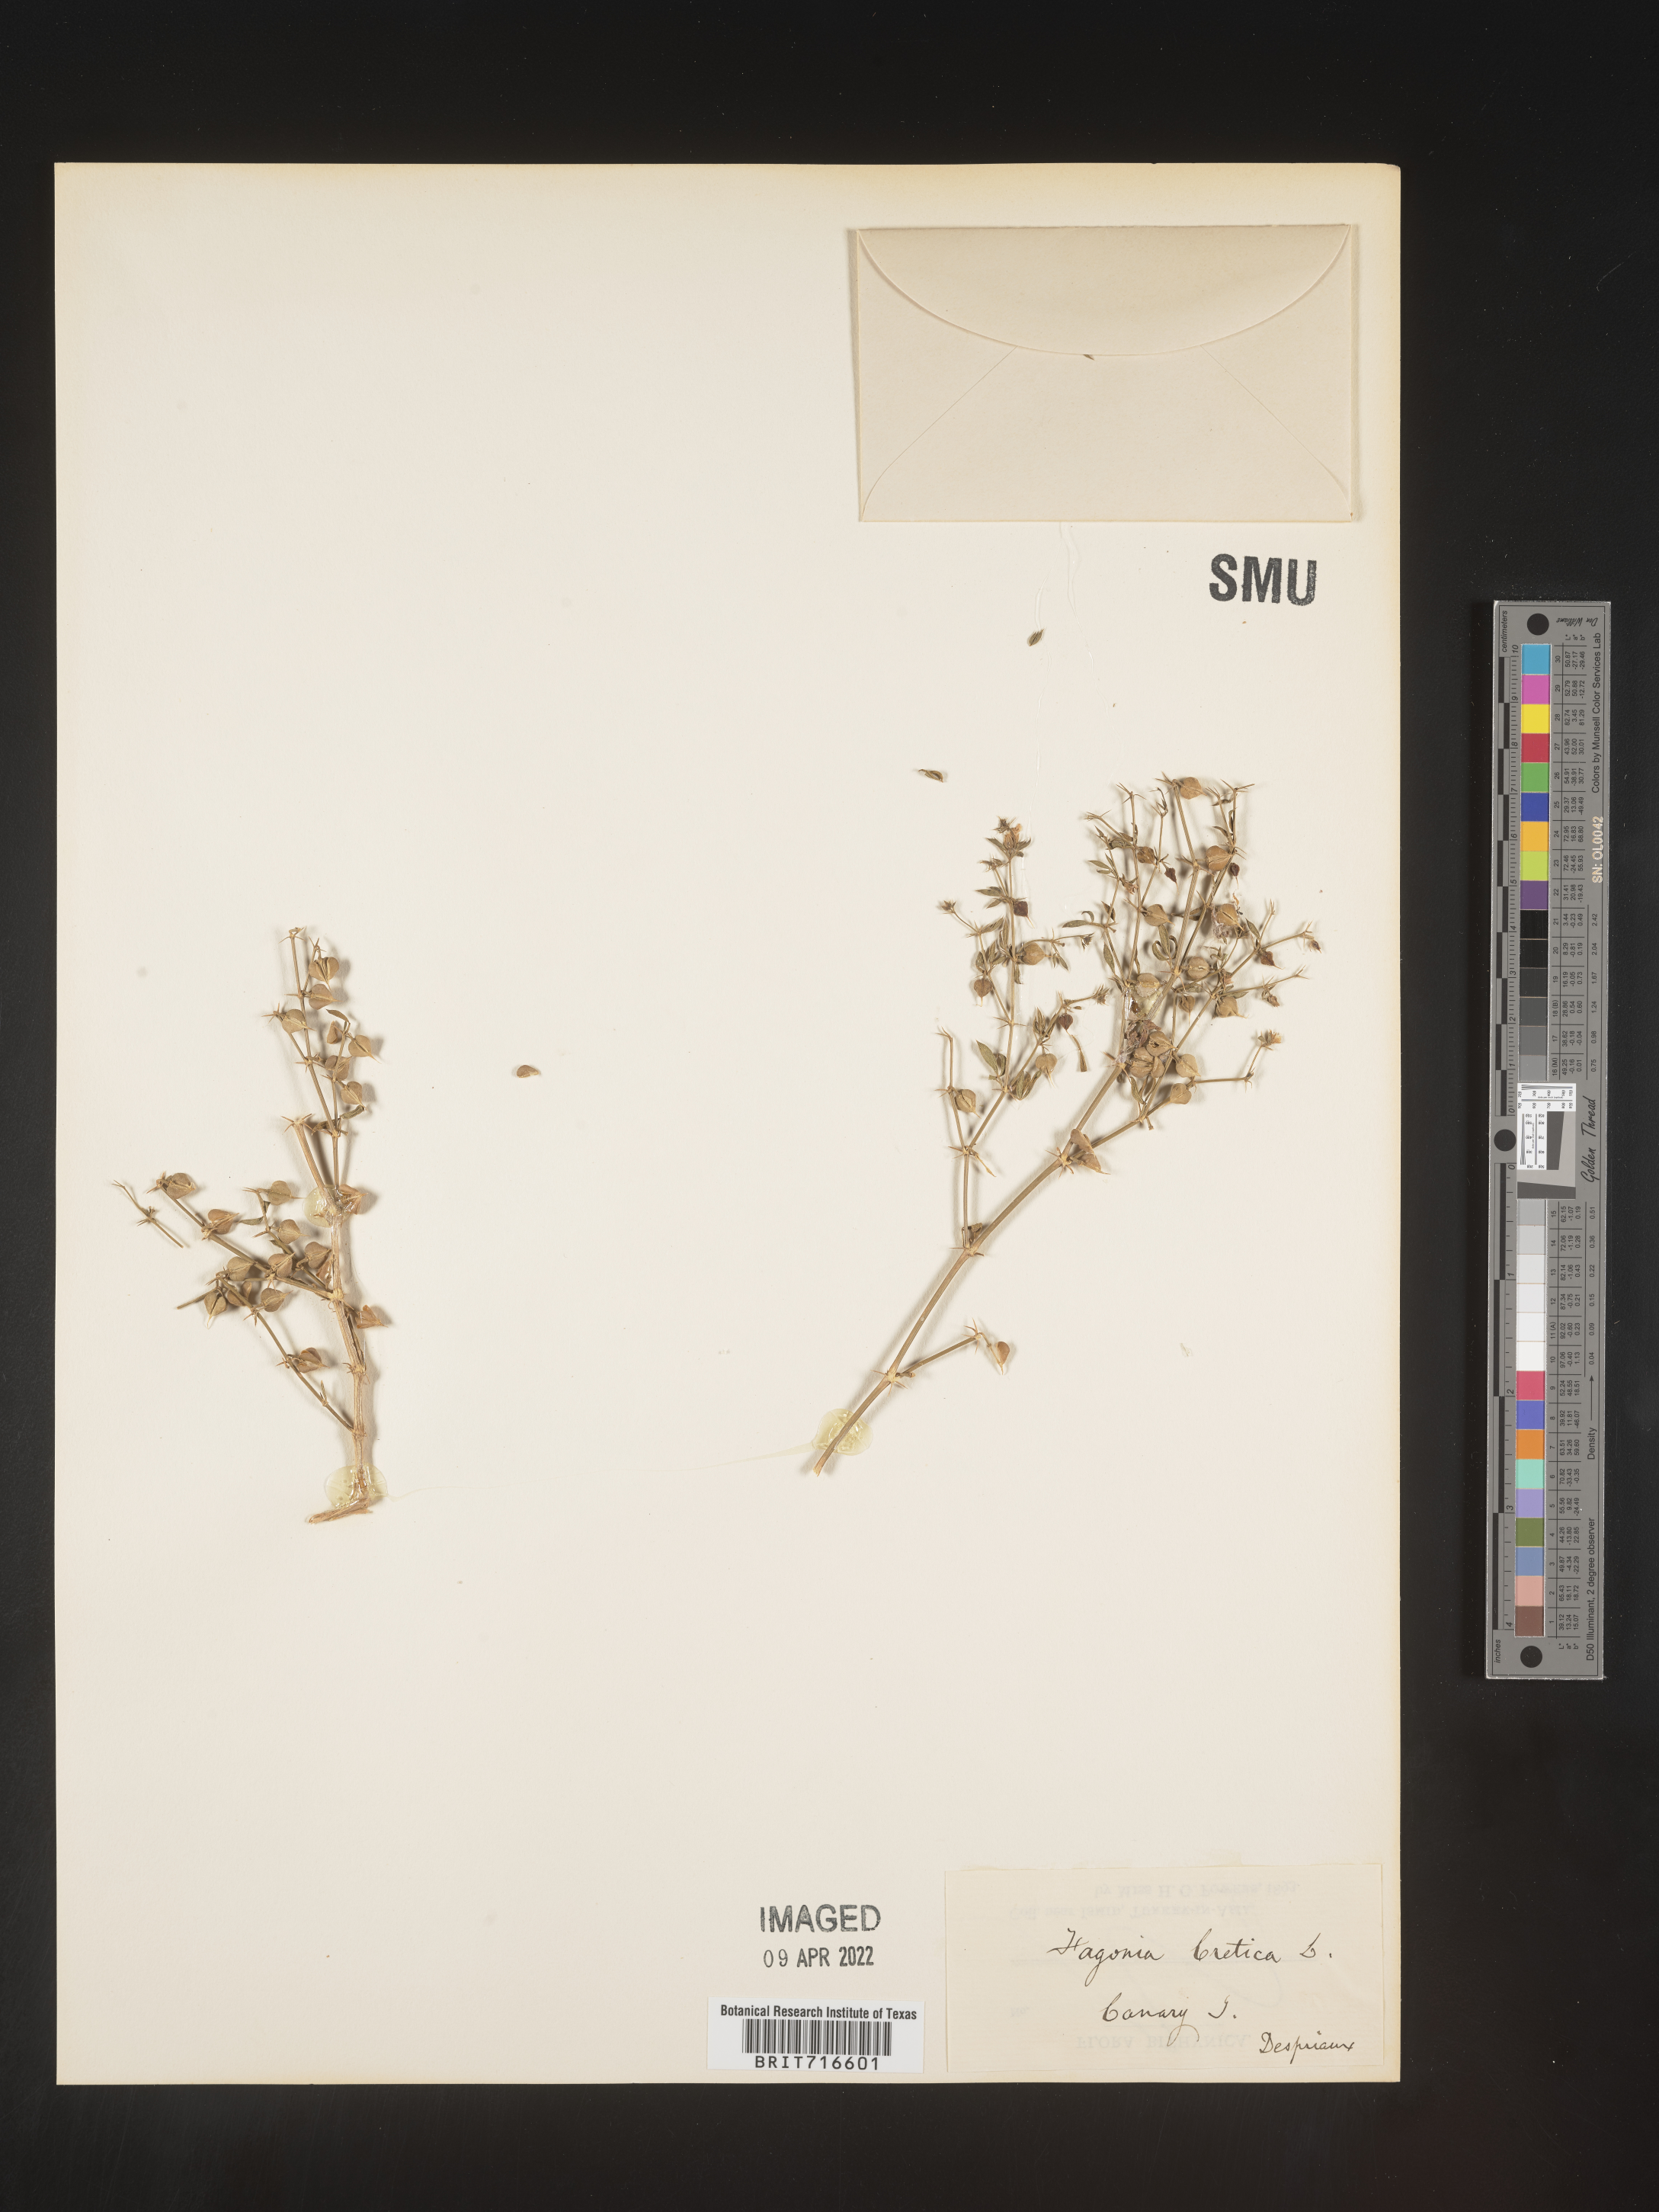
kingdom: Plantae
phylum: Tracheophyta
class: Magnoliopsida
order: Zygophyllales
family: Zygophyllaceae
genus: Fagonia
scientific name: Fagonia
